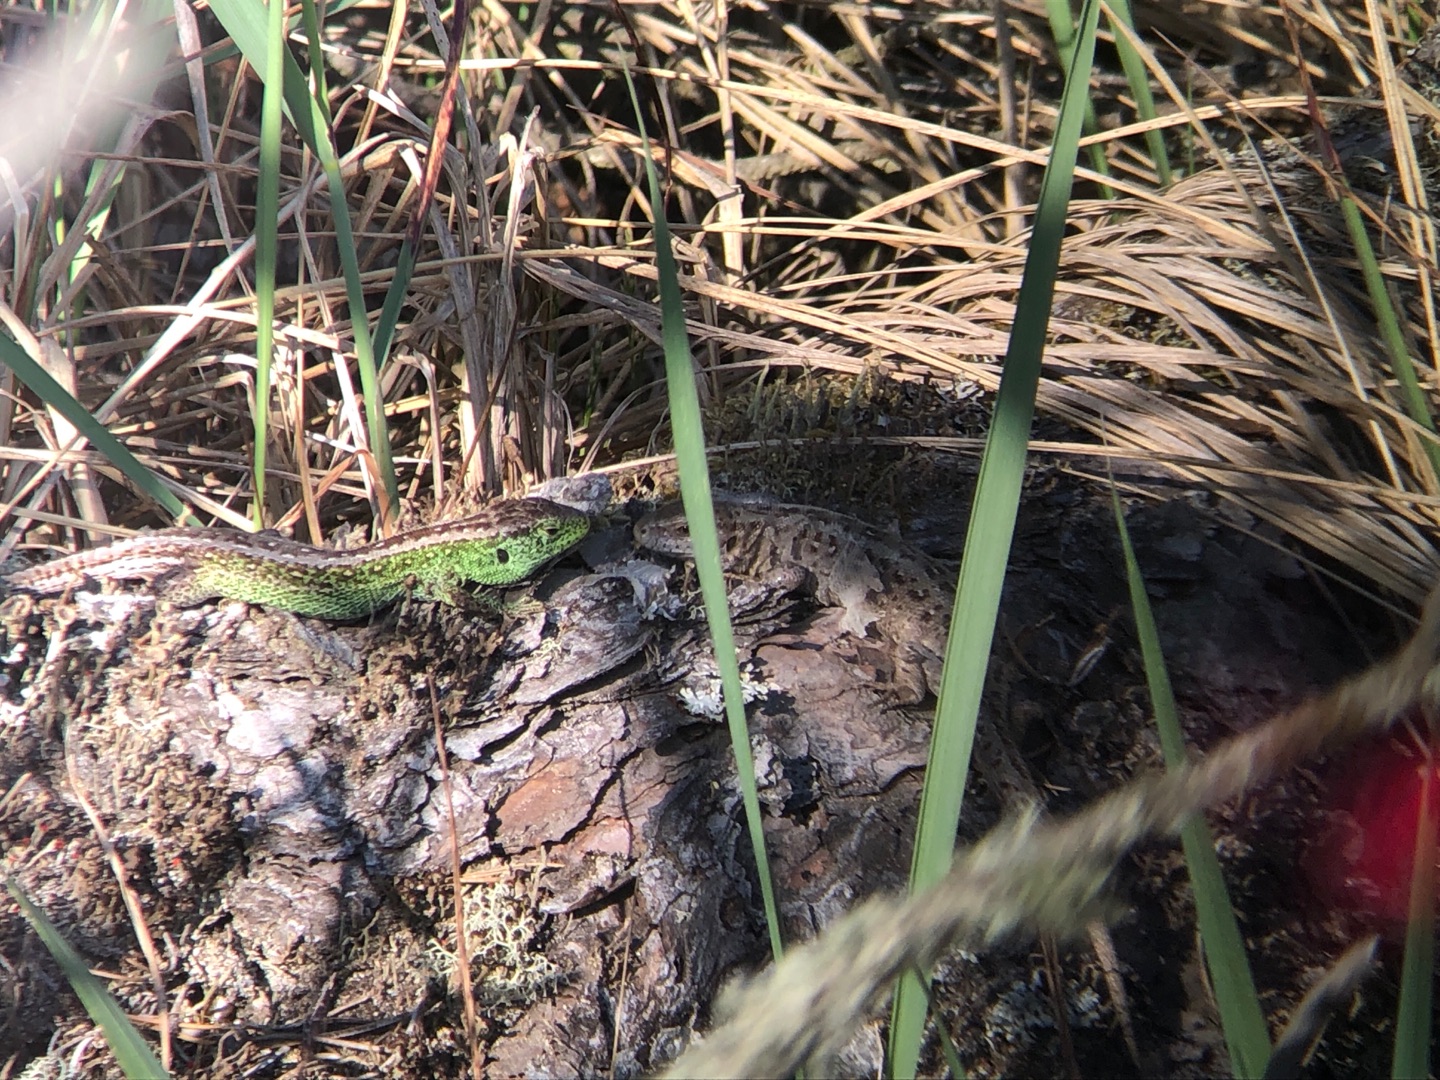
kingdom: Animalia
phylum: Chordata
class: Squamata
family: Lacertidae
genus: Lacerta
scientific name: Lacerta agilis
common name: Markfirben
